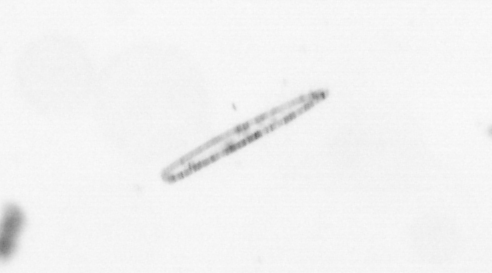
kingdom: Chromista
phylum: Ochrophyta
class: Bacillariophyceae
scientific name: Bacillariophyceae
